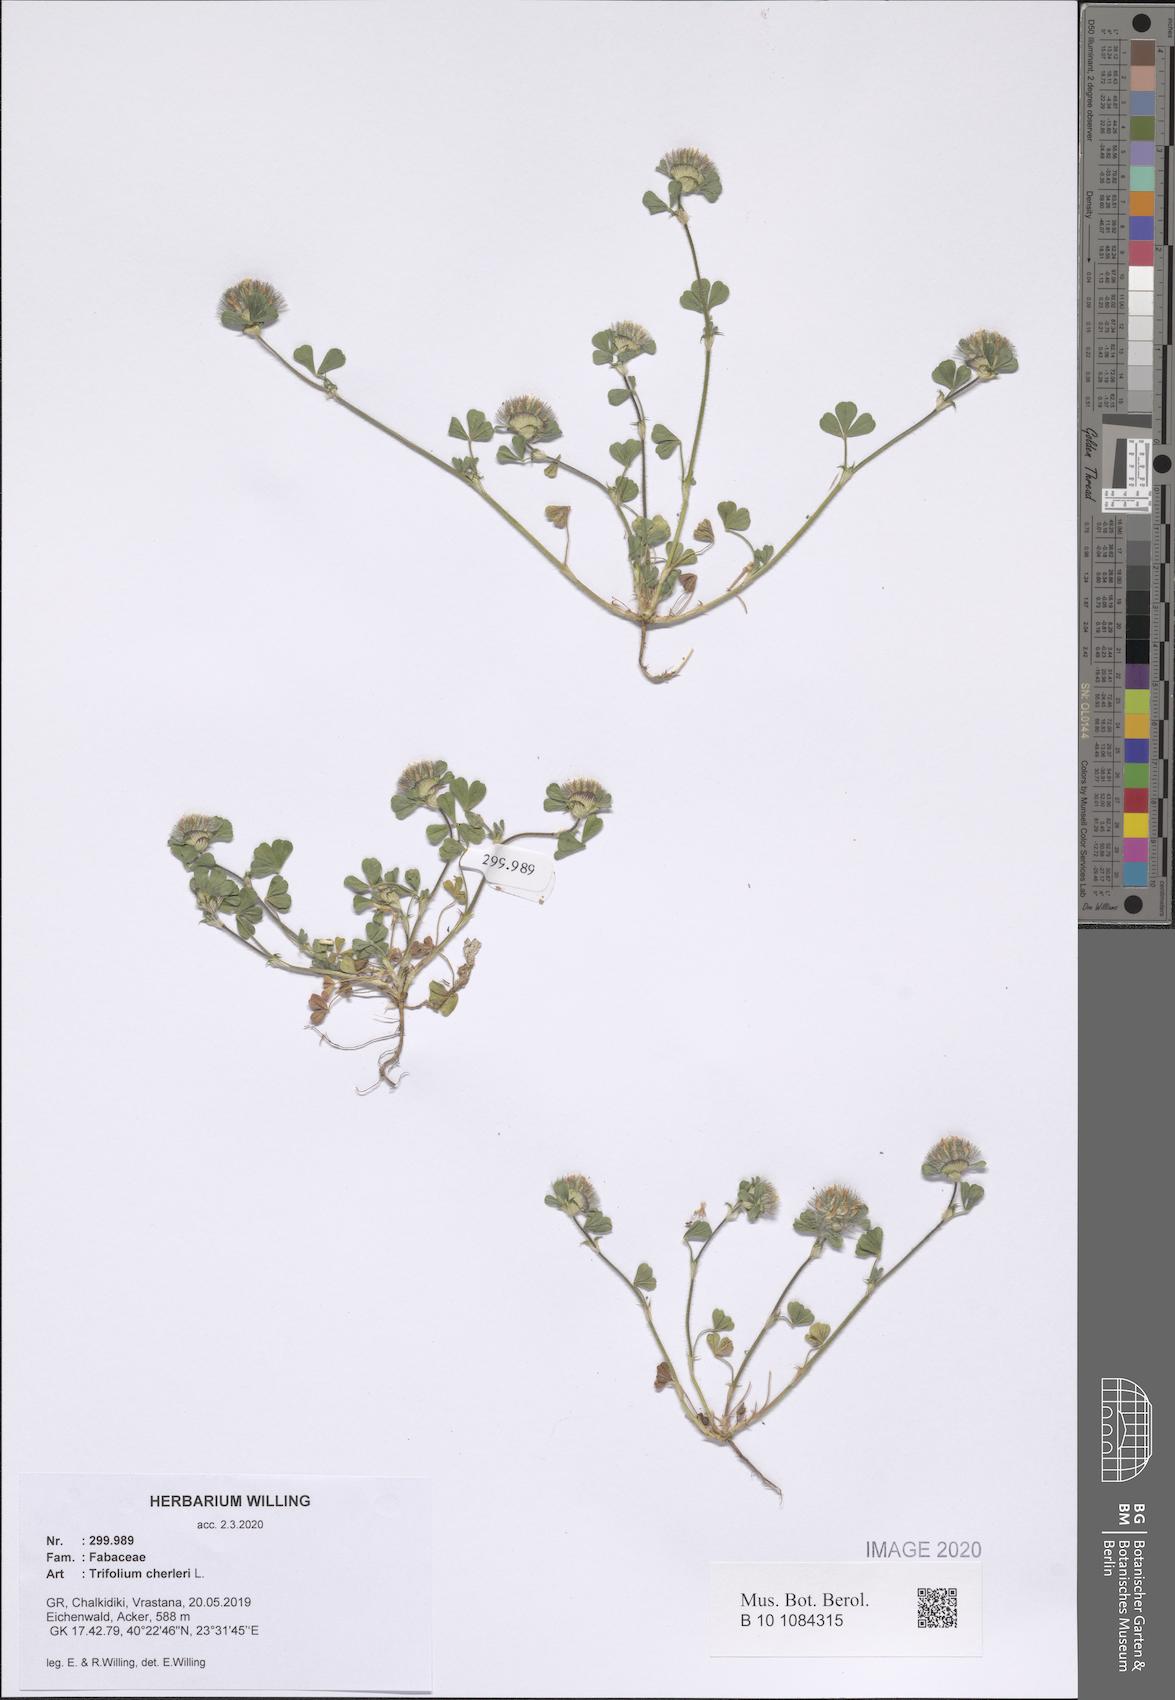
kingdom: Plantae
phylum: Tracheophyta
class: Magnoliopsida
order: Fabales
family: Fabaceae
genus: Trifolium
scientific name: Trifolium cherleri
